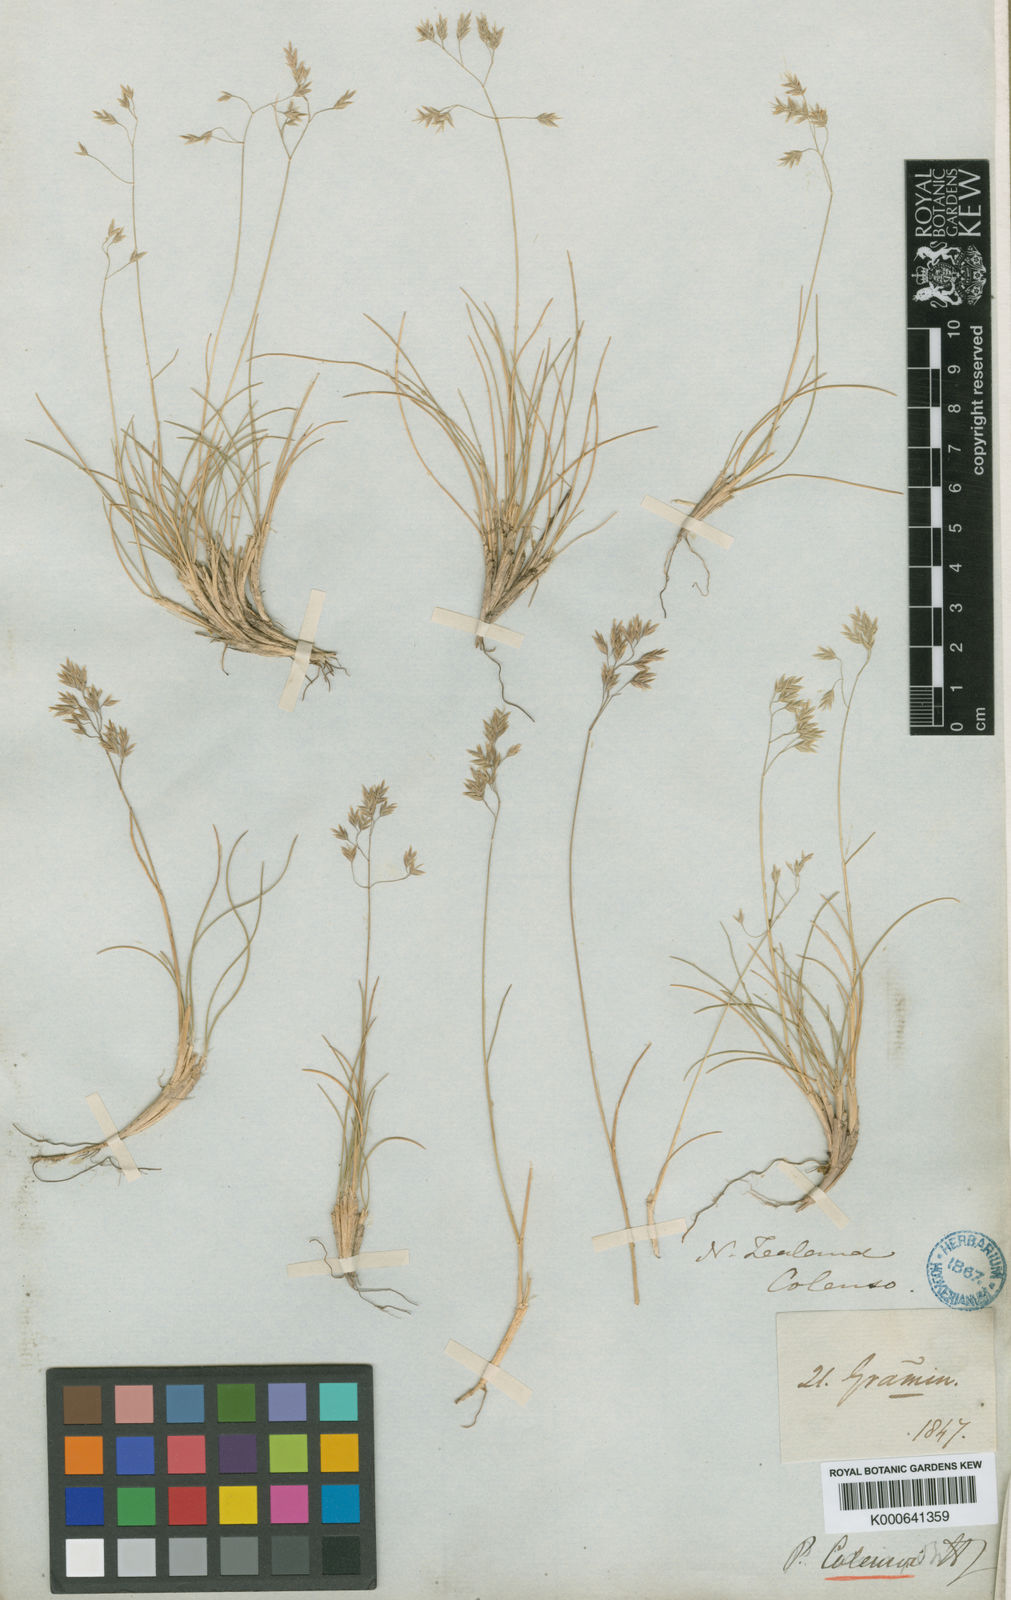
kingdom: Plantae
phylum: Tracheophyta
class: Liliopsida
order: Poales
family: Poaceae
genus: Poa
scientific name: Poa colensoi
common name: Blue tussock
